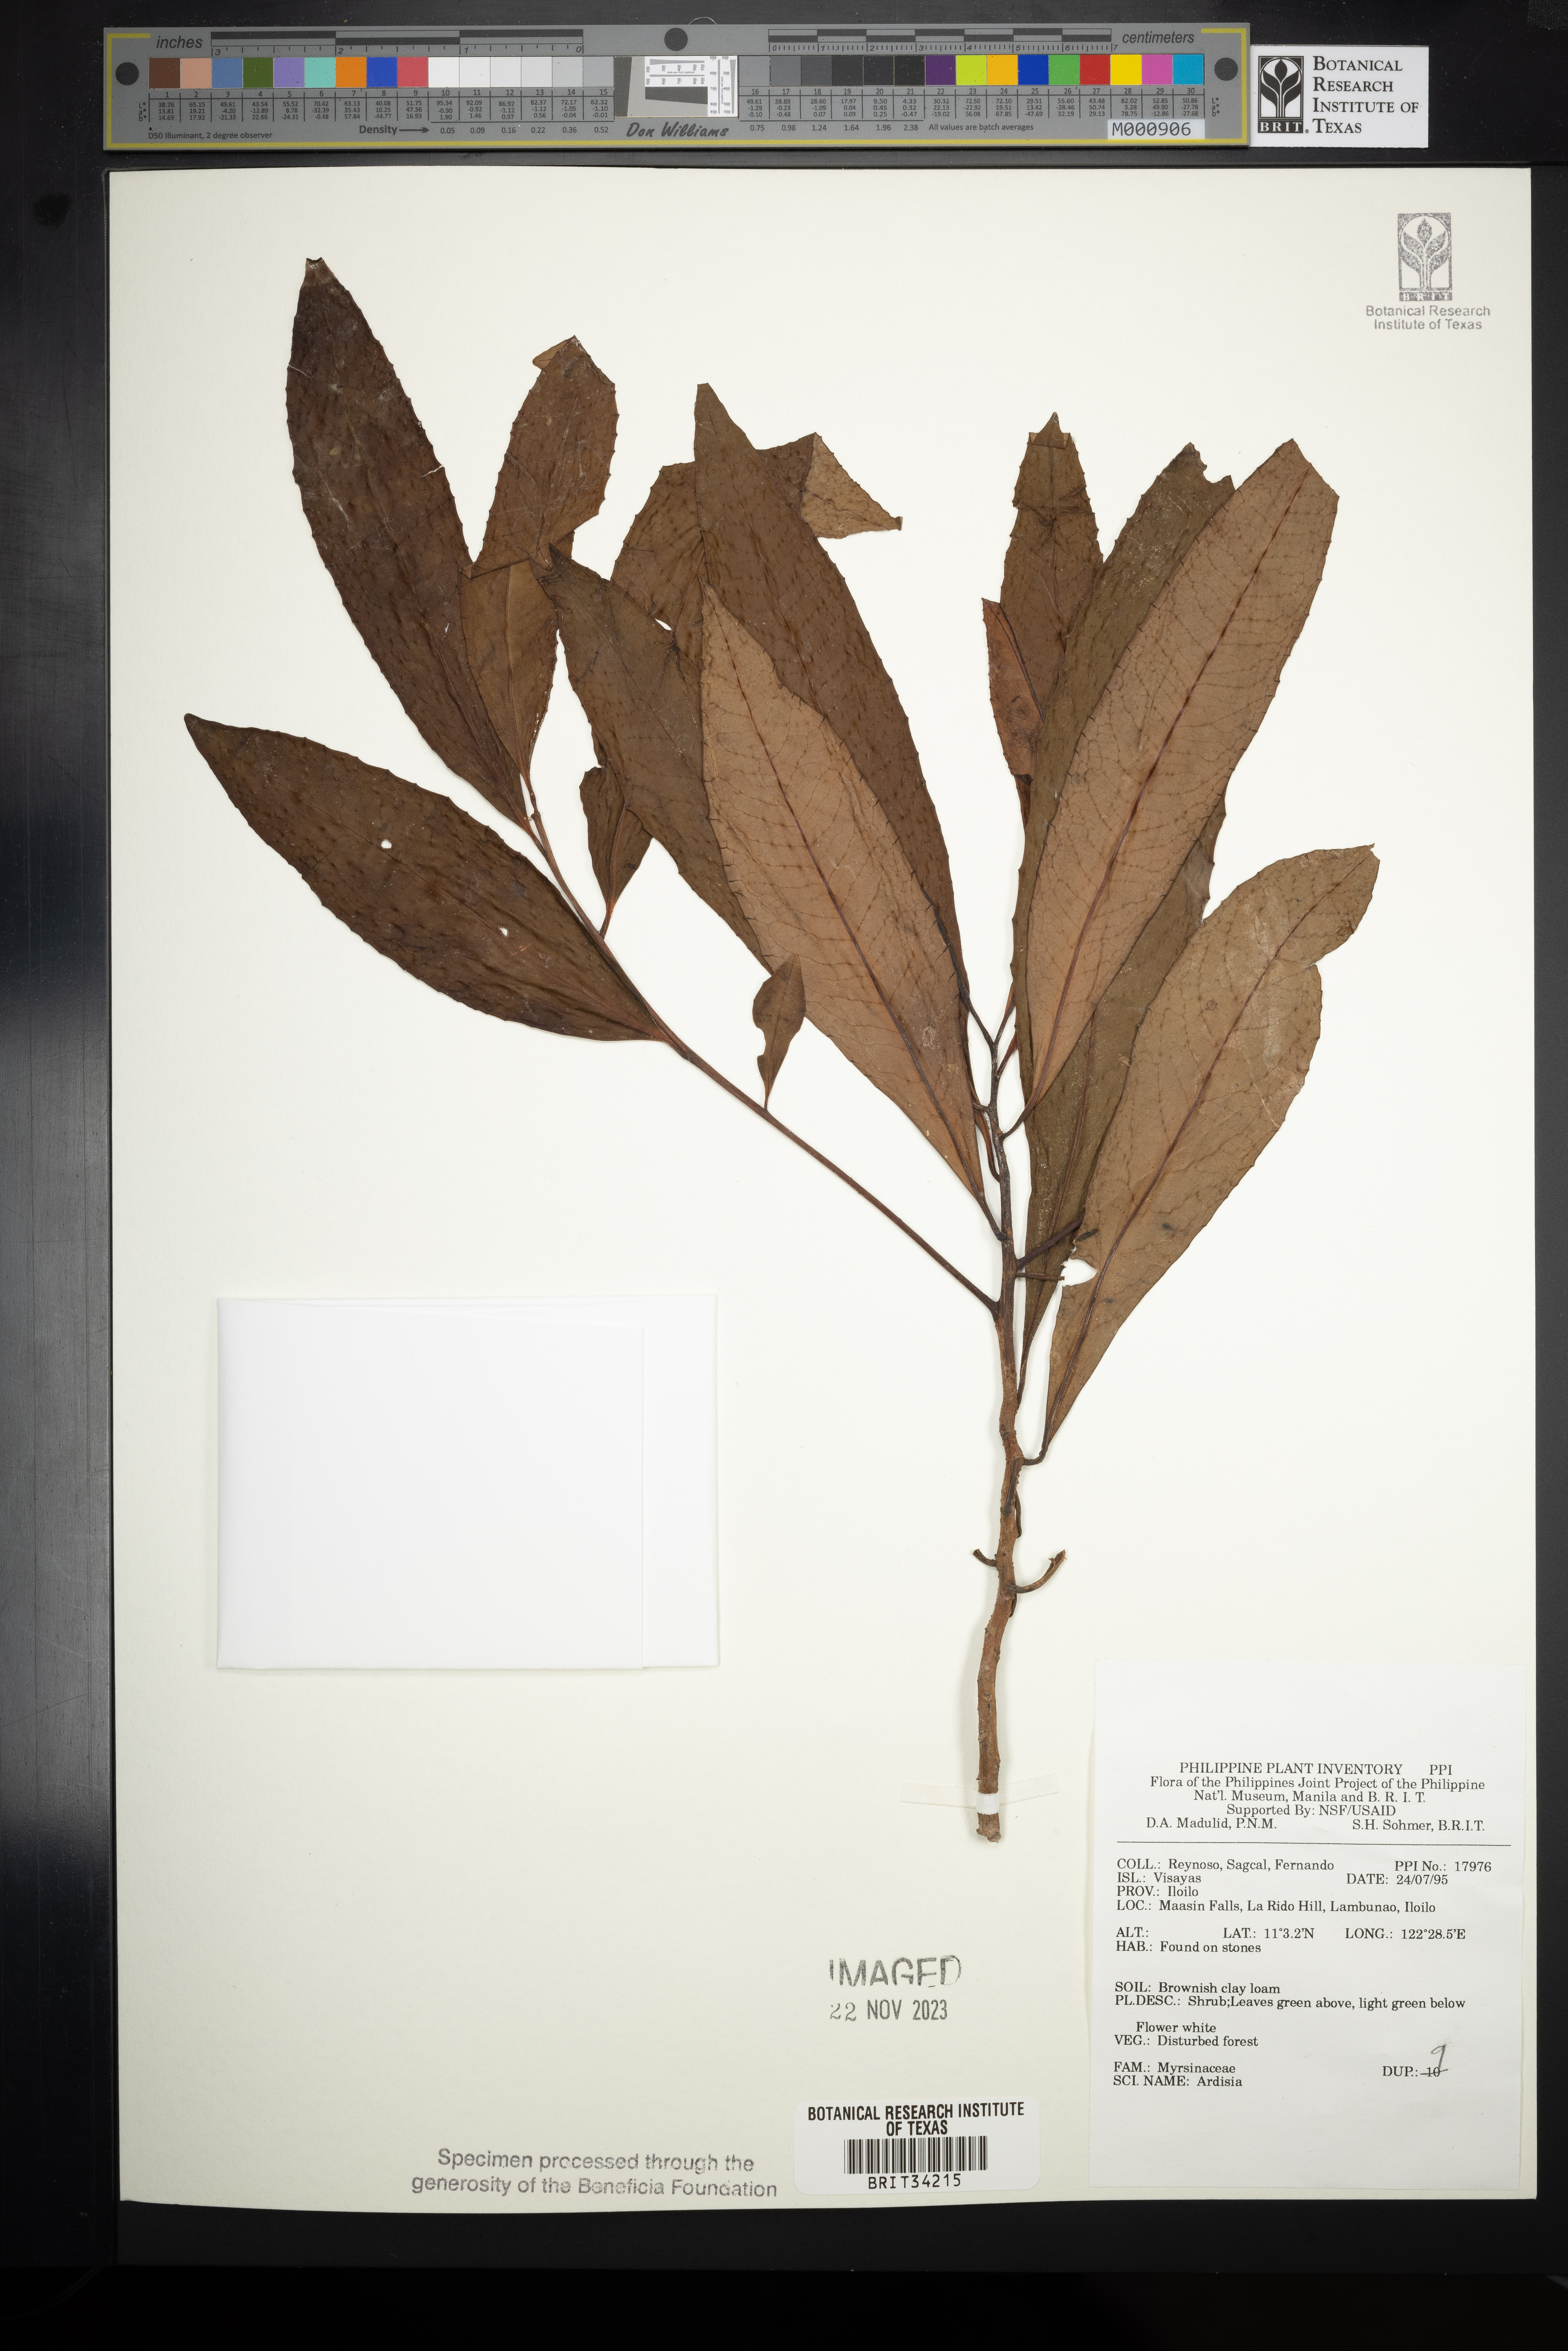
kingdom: Plantae
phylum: Tracheophyta
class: Magnoliopsida
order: Ericales
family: Primulaceae
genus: Ardisia
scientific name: Ardisia
